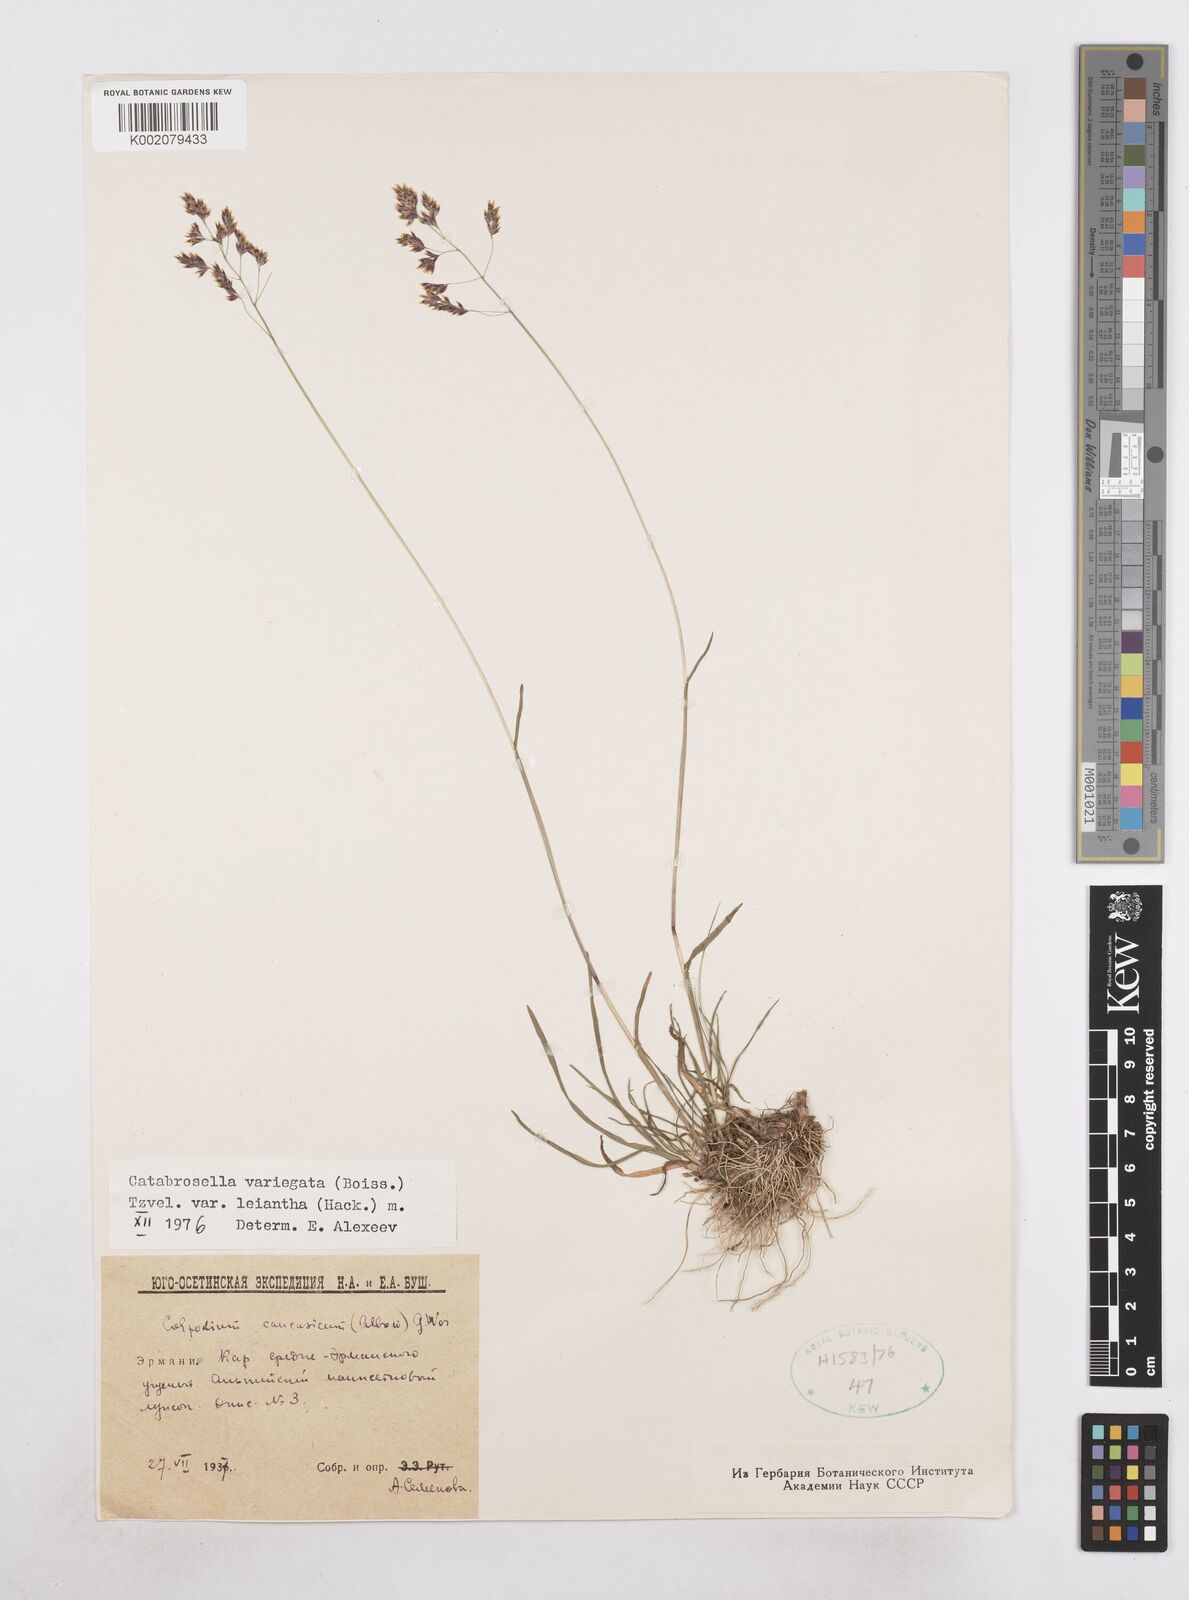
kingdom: Plantae
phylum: Tracheophyta
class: Liliopsida
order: Poales
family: Poaceae
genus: Catabrosella
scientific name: Catabrosella variegata
